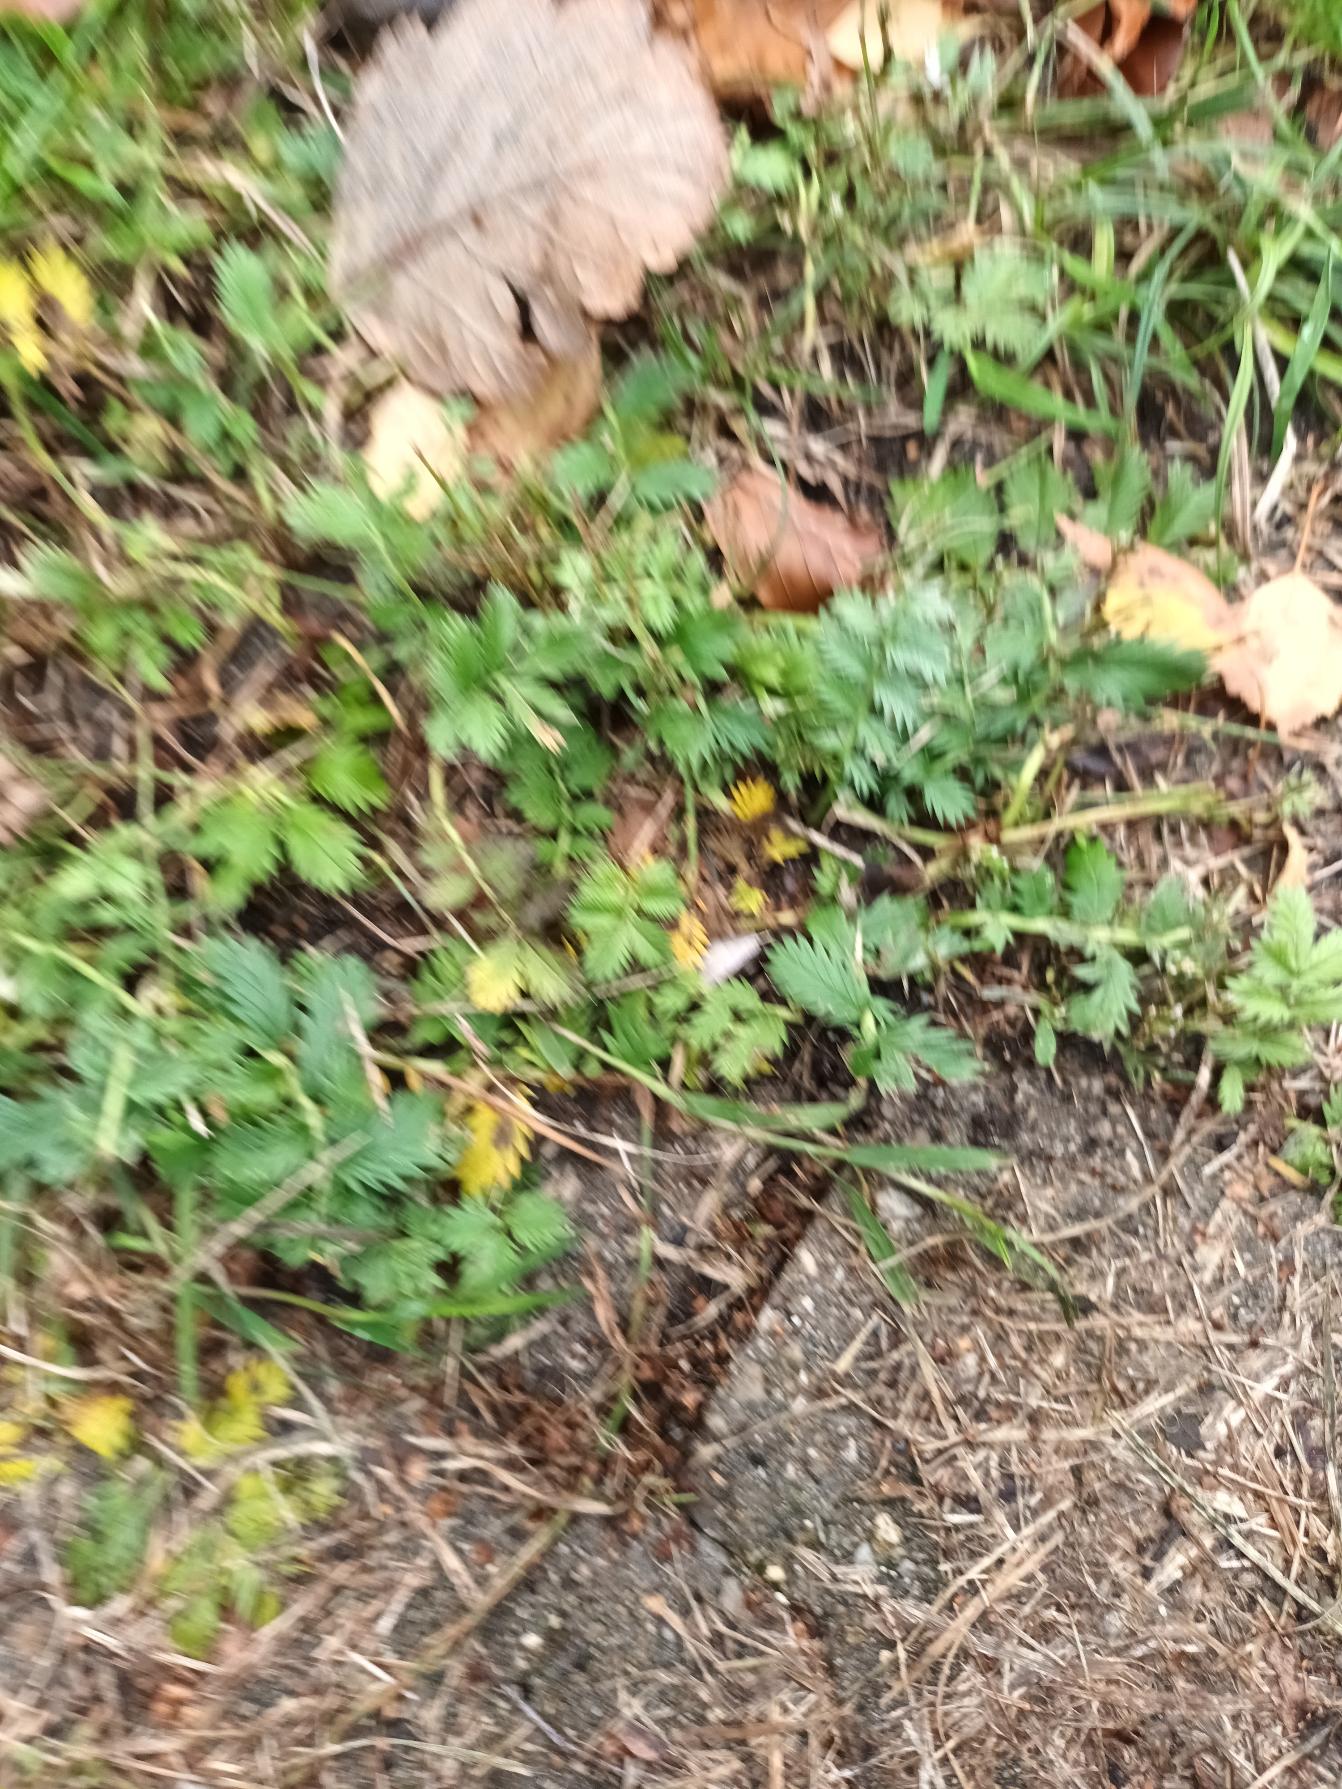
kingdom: Plantae
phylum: Tracheophyta
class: Magnoliopsida
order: Rosales
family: Rosaceae
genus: Argentina
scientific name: Argentina anserina
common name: Gåsepotentil
